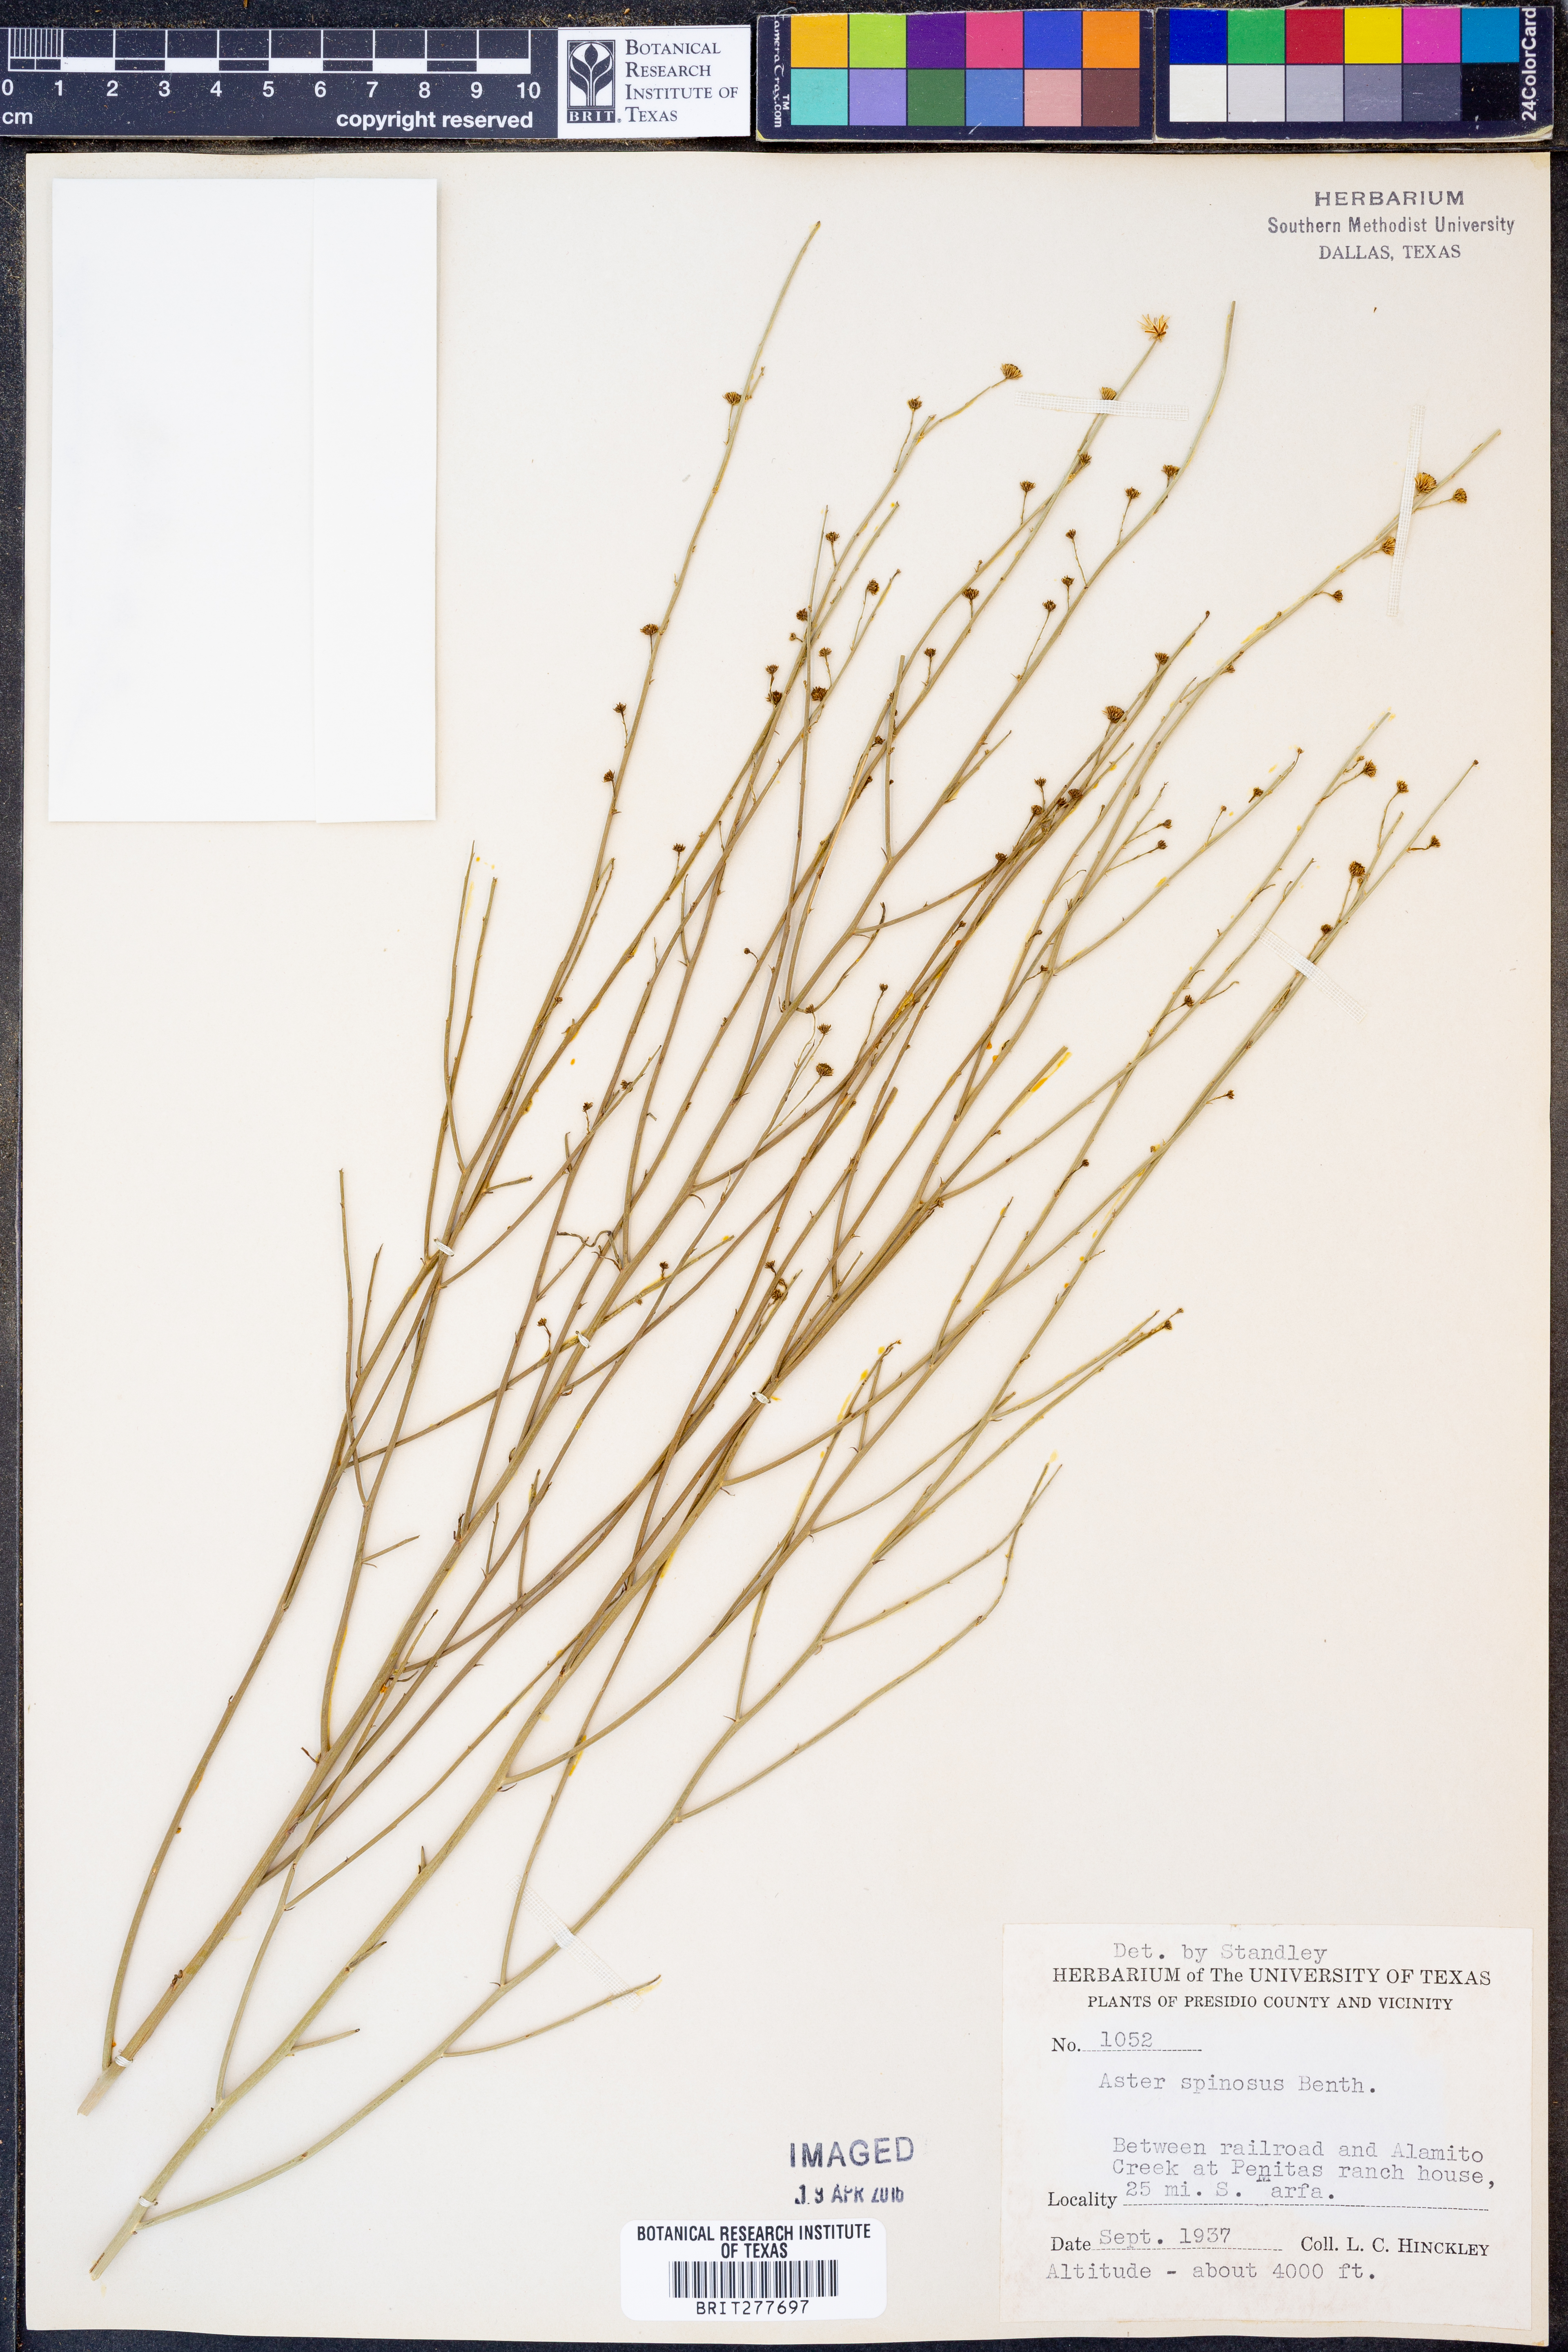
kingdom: Plantae
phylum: Tracheophyta
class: Magnoliopsida
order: Asterales
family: Asteraceae
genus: Chloracantha
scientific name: Chloracantha spinosa
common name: Mexican devilweed
